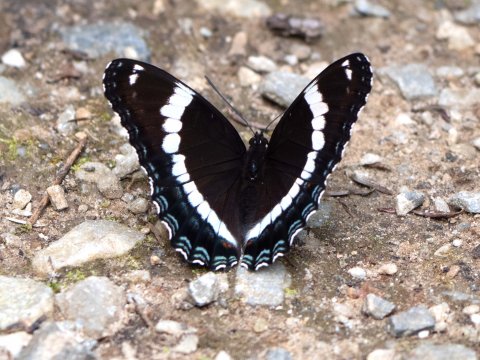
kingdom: Animalia
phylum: Arthropoda
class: Insecta
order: Lepidoptera
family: Nymphalidae
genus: Limenitis
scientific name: Limenitis arthemis
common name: Red-spotted Admiral
